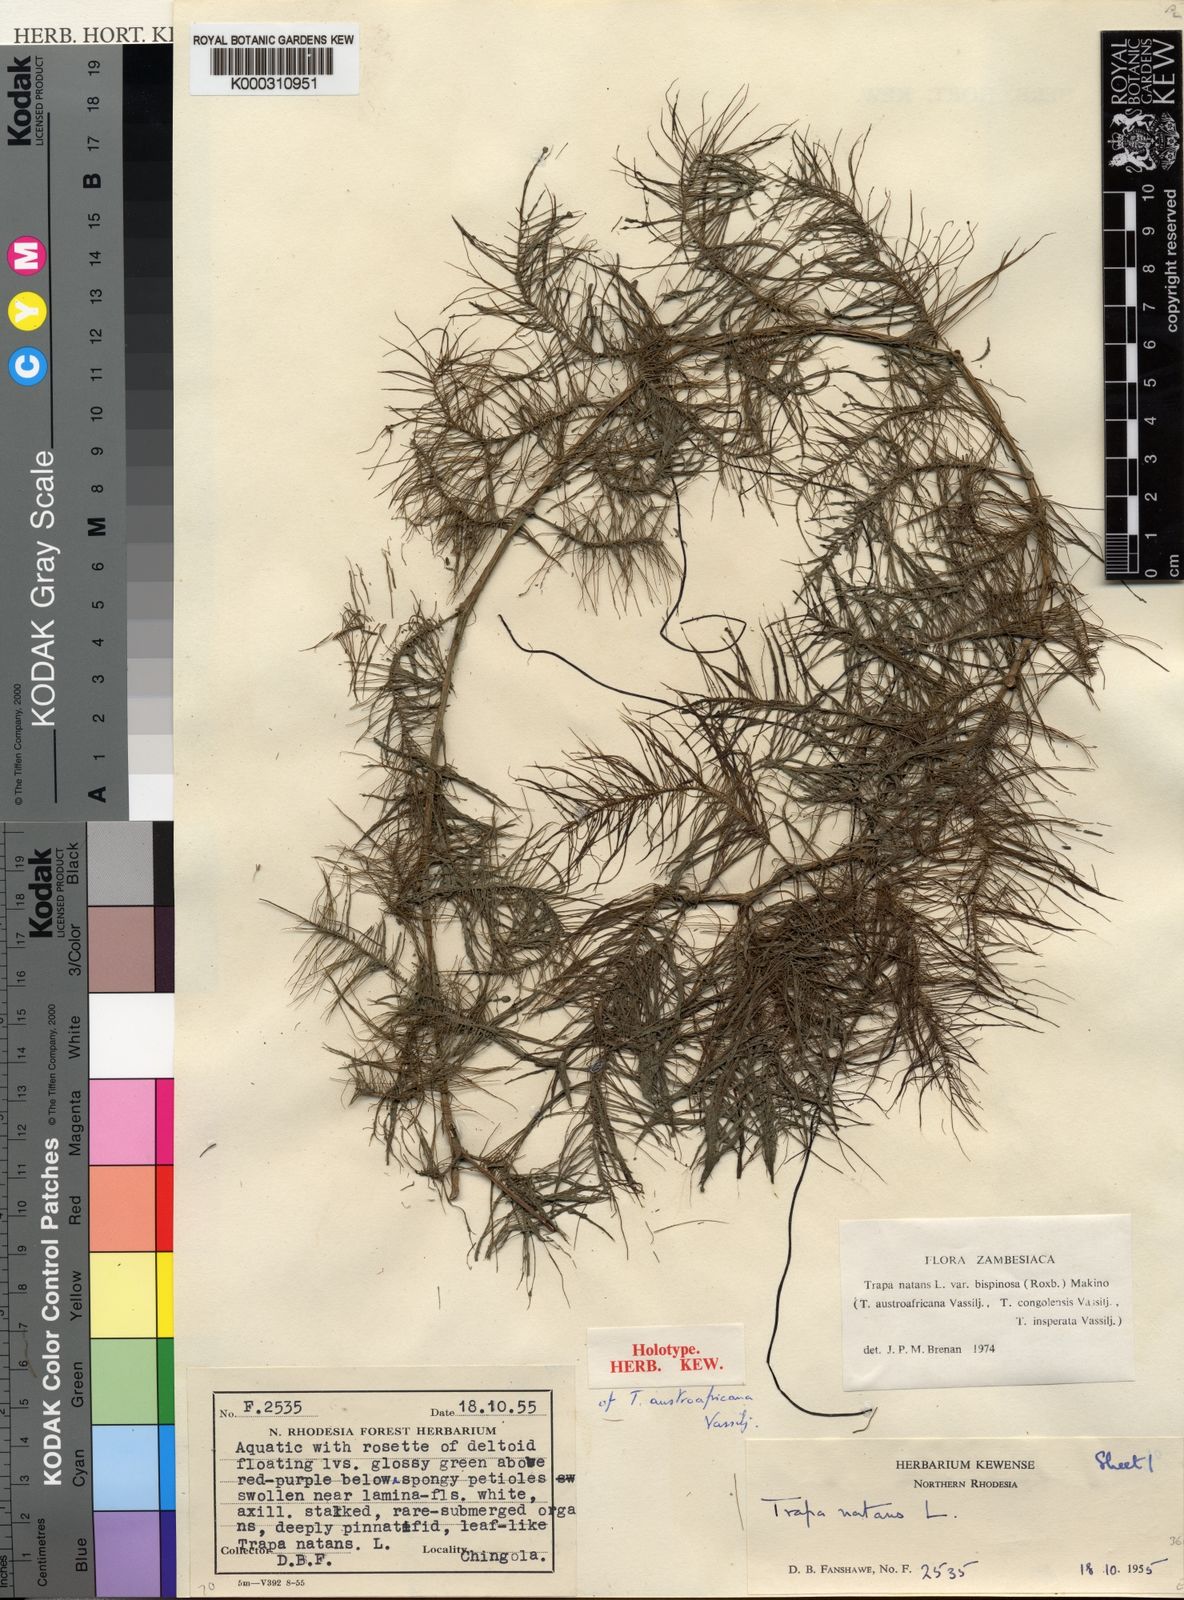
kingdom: Plantae
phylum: Tracheophyta
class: Magnoliopsida
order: Myrtales
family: Lythraceae
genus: Trapa
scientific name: Trapa natans
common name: Water chestnut
